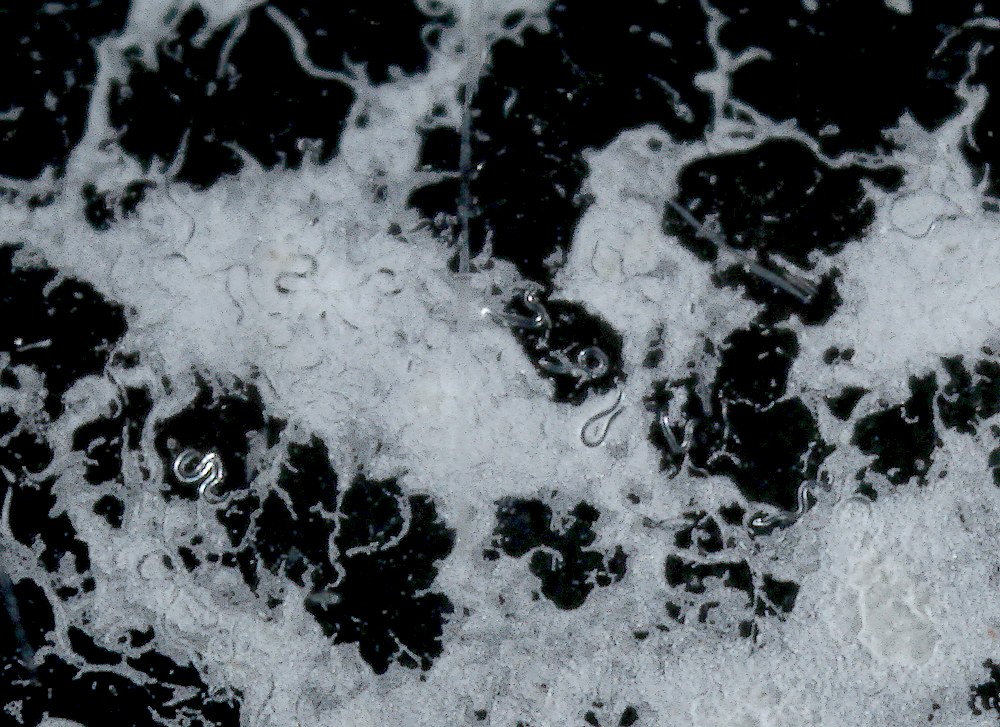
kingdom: Fungi
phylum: Ascomycota
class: Sordariomycetes
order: Hypocreales
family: Hypocreaceae
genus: Trichoderma
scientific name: Trichoderma citrinoviride
